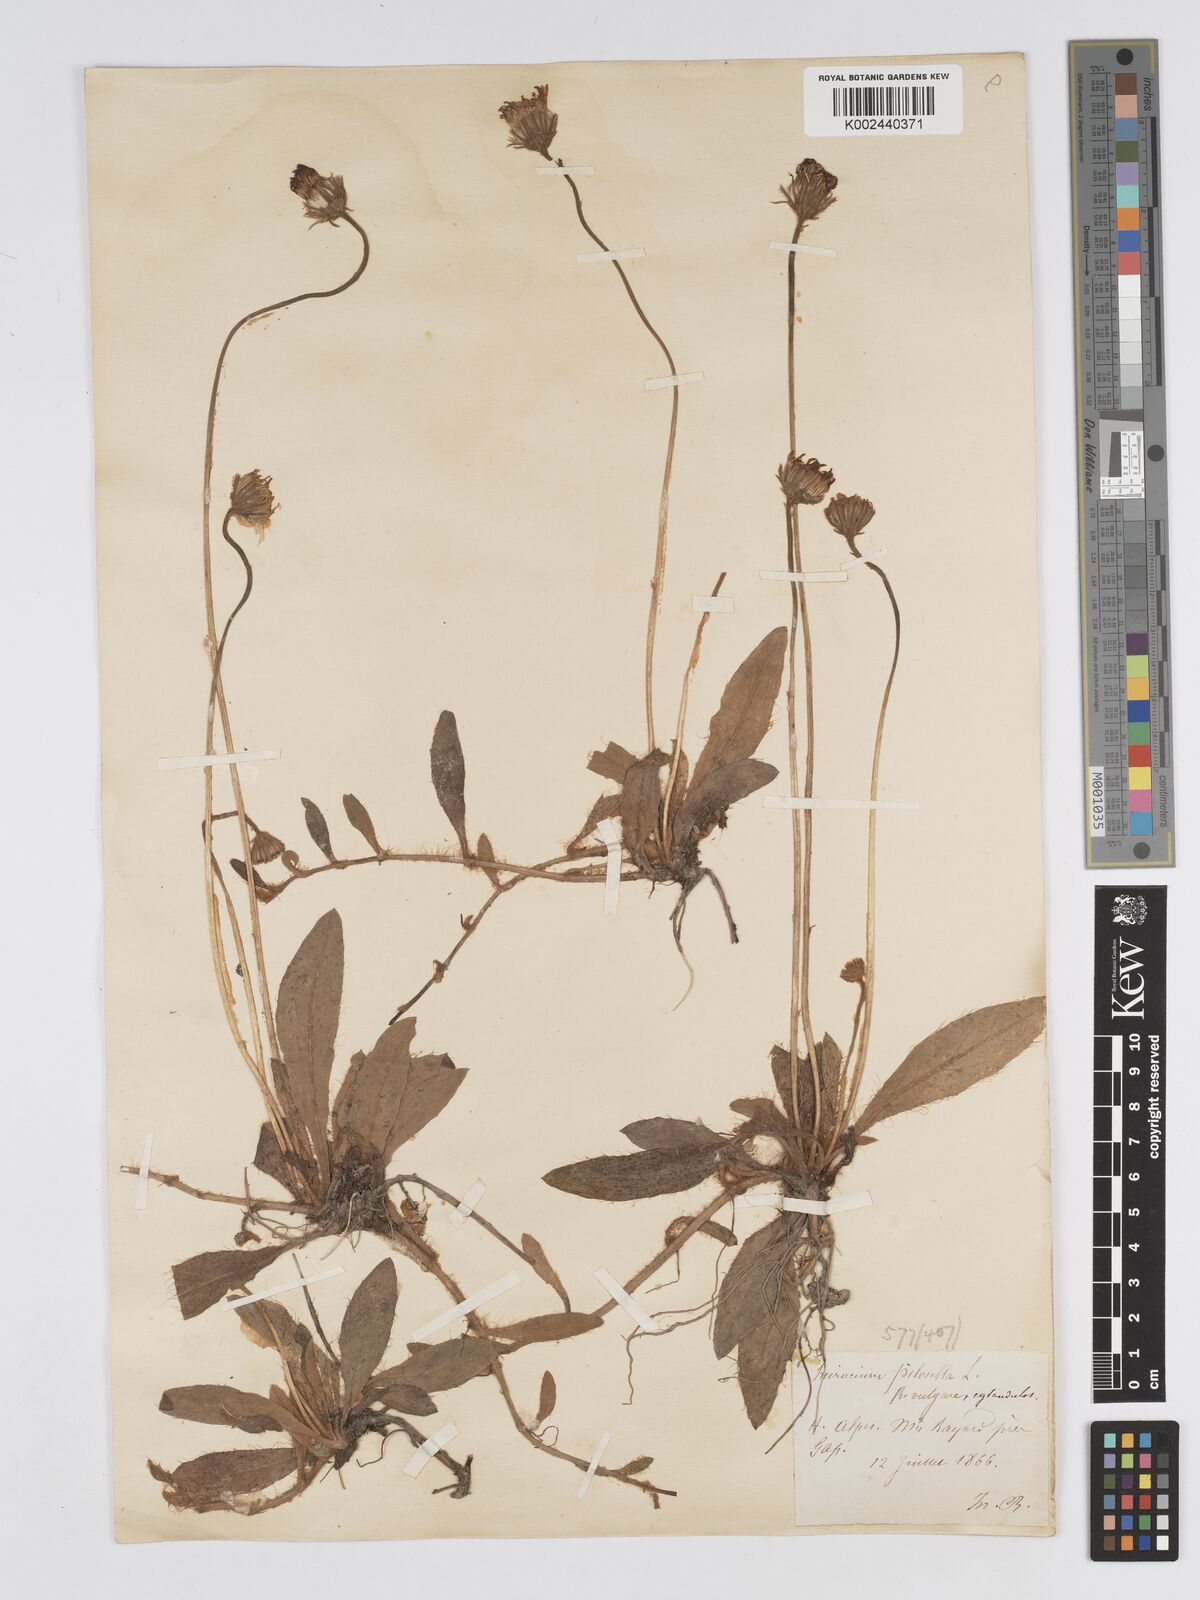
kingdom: Plantae
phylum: Tracheophyta
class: Magnoliopsida
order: Asterales
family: Asteraceae
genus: Pilosella
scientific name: Pilosella officinarum
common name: Mouse-ear hawkweed
